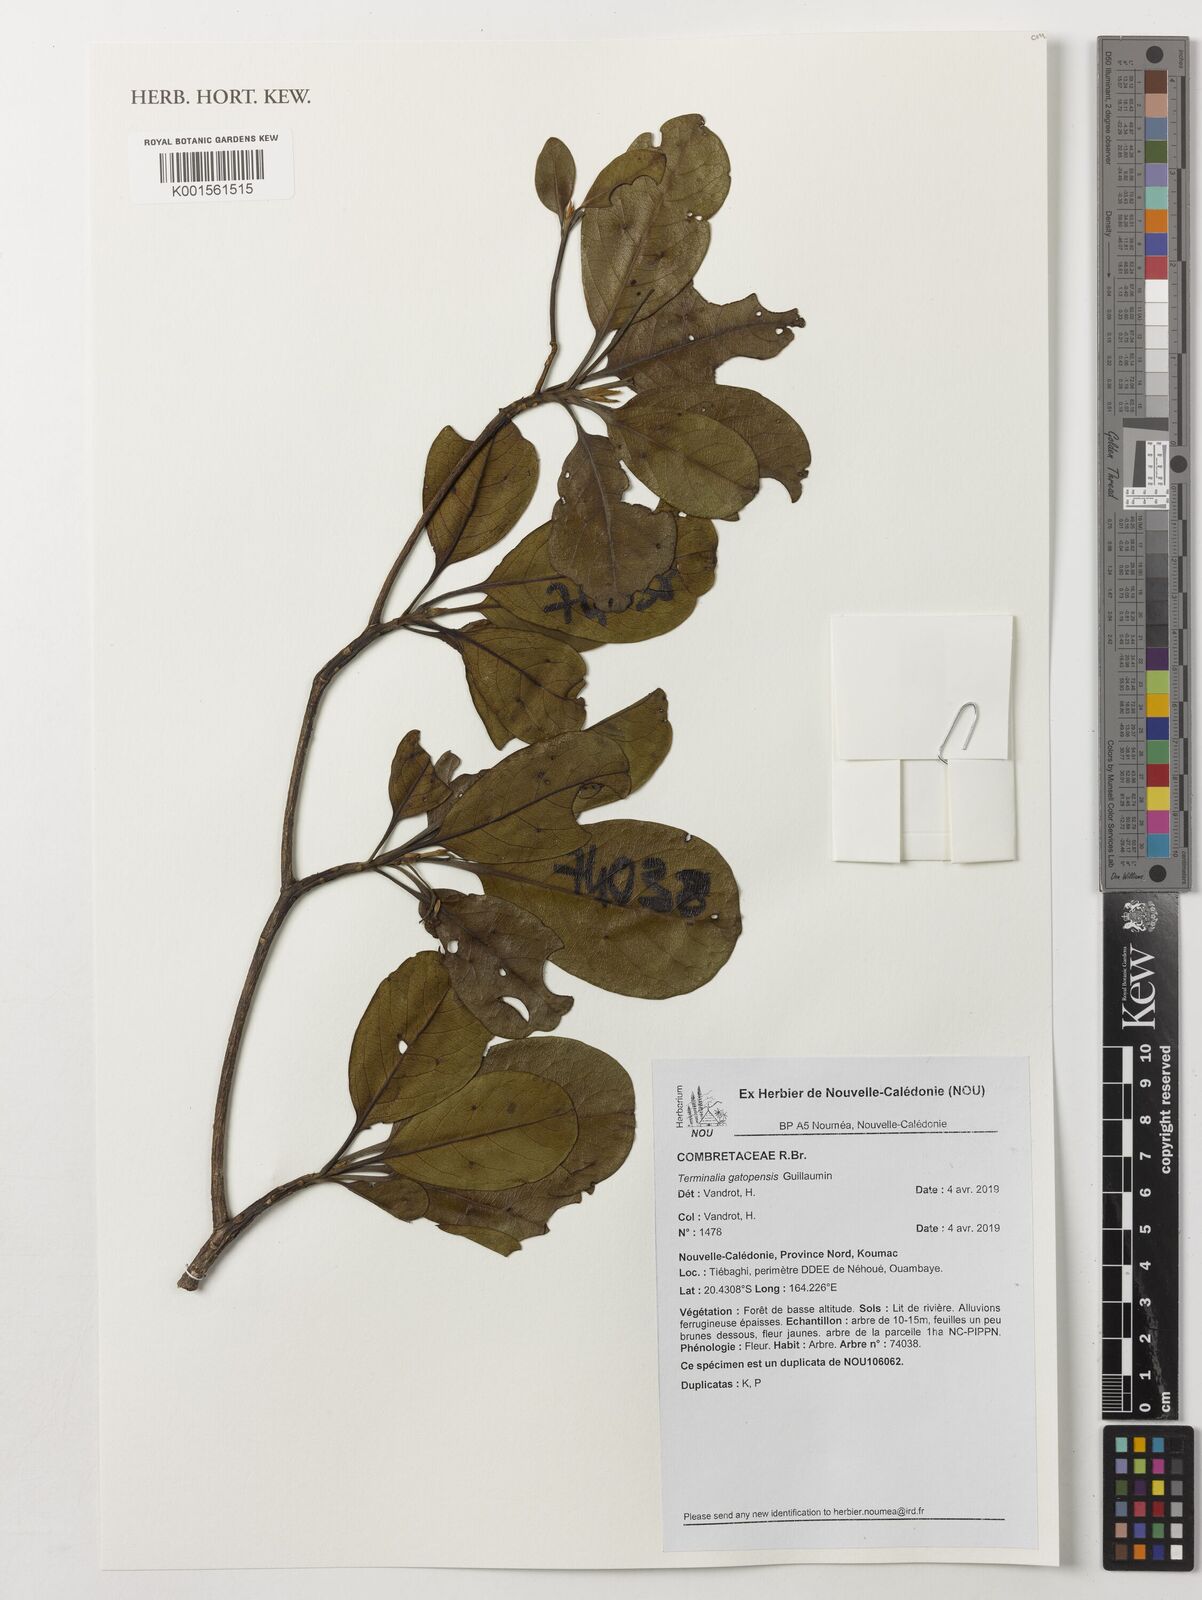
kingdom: Plantae
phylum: Tracheophyta
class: Magnoliopsida
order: Myrtales
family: Combretaceae
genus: Terminalia
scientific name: Terminalia gatopensis
